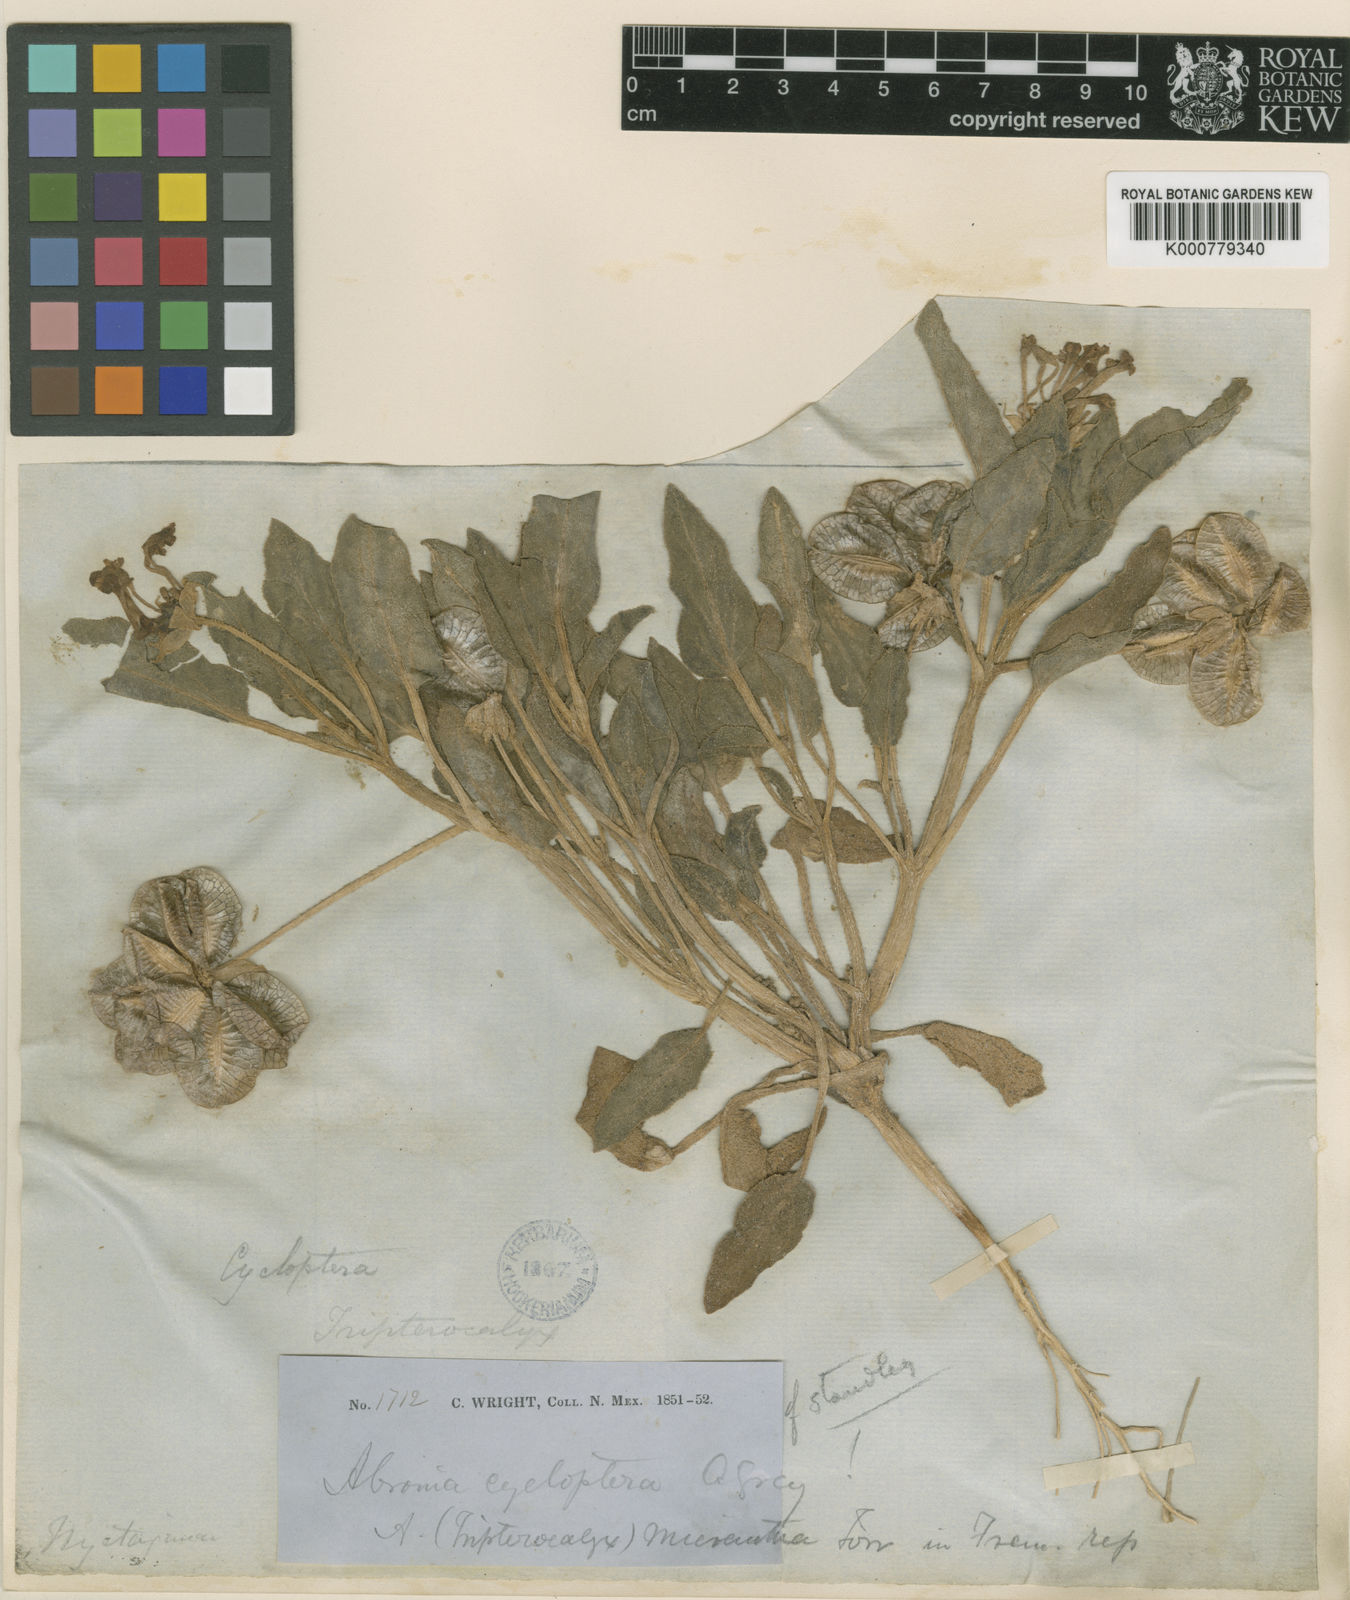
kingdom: Plantae
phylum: Tracheophyta
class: Magnoliopsida
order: Caryophyllales
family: Nyctaginaceae
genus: Tripterocalyx
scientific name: Tripterocalyx micranthus
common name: Small-flowered sand-verbena
